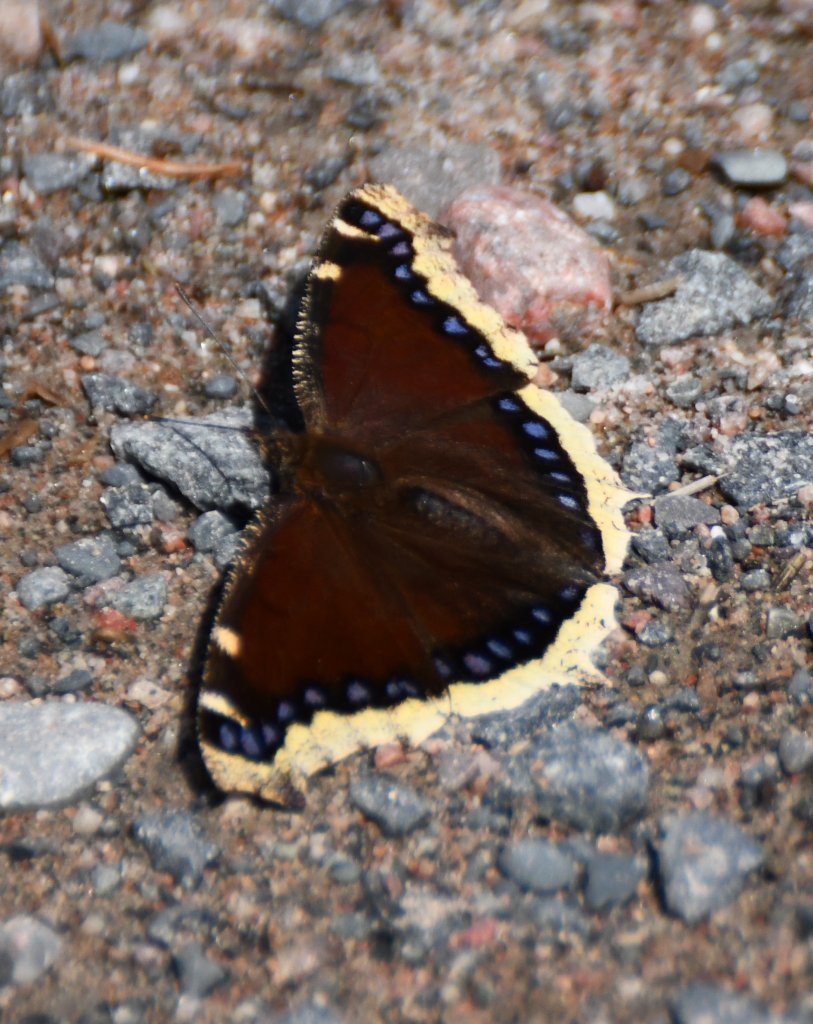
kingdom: Animalia
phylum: Arthropoda
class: Insecta
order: Lepidoptera
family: Nymphalidae
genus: Nymphalis
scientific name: Nymphalis antiopa
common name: Mourning Cloak
